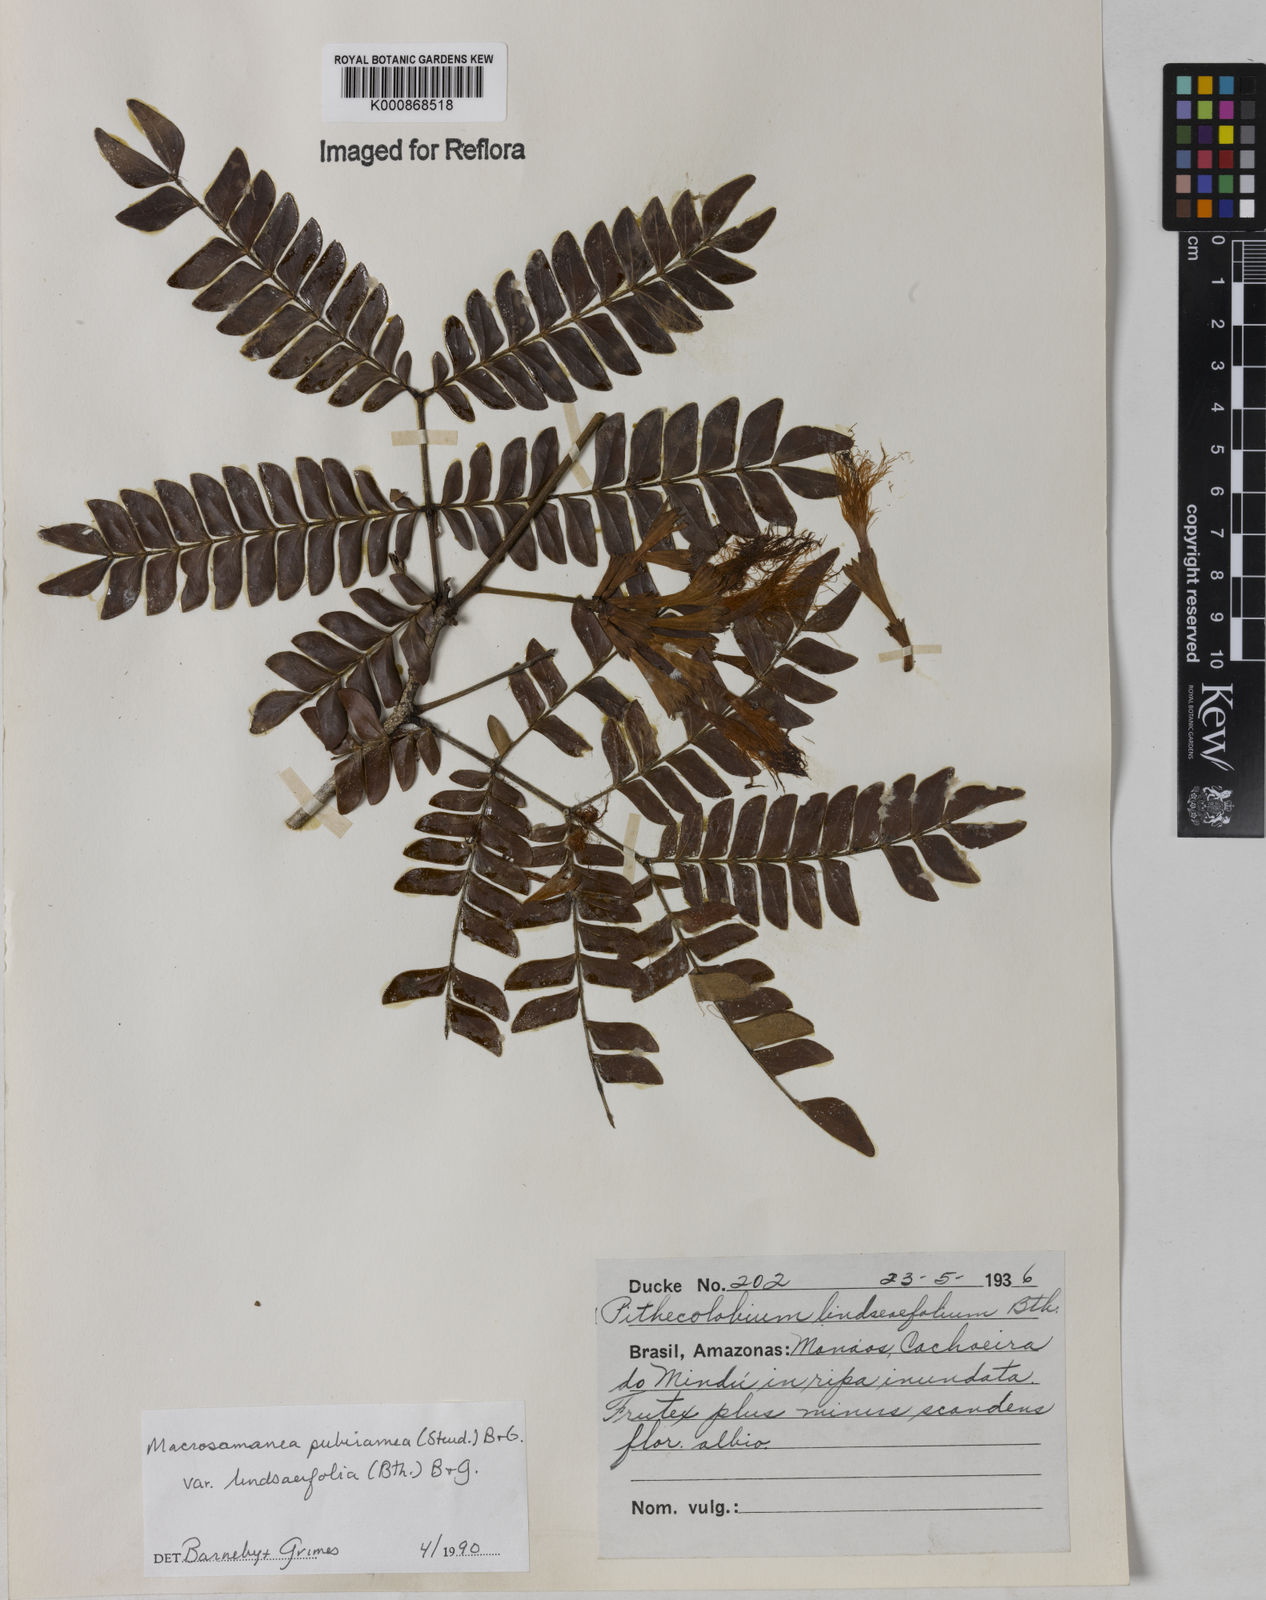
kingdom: Plantae
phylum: Tracheophyta
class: Magnoliopsida
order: Fabales
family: Fabaceae
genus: Macrosamanea
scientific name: Macrosamanea pubiramea
